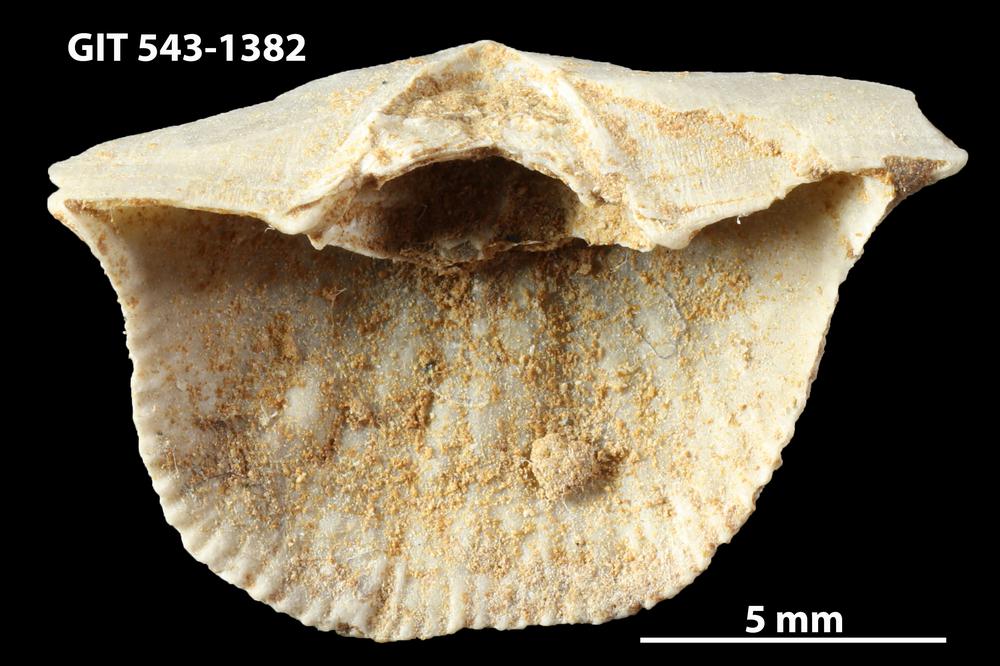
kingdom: Animalia
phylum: Brachiopoda
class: Rhynchonellata
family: Clitambonitidae
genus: Vellamo
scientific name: Vellamo
